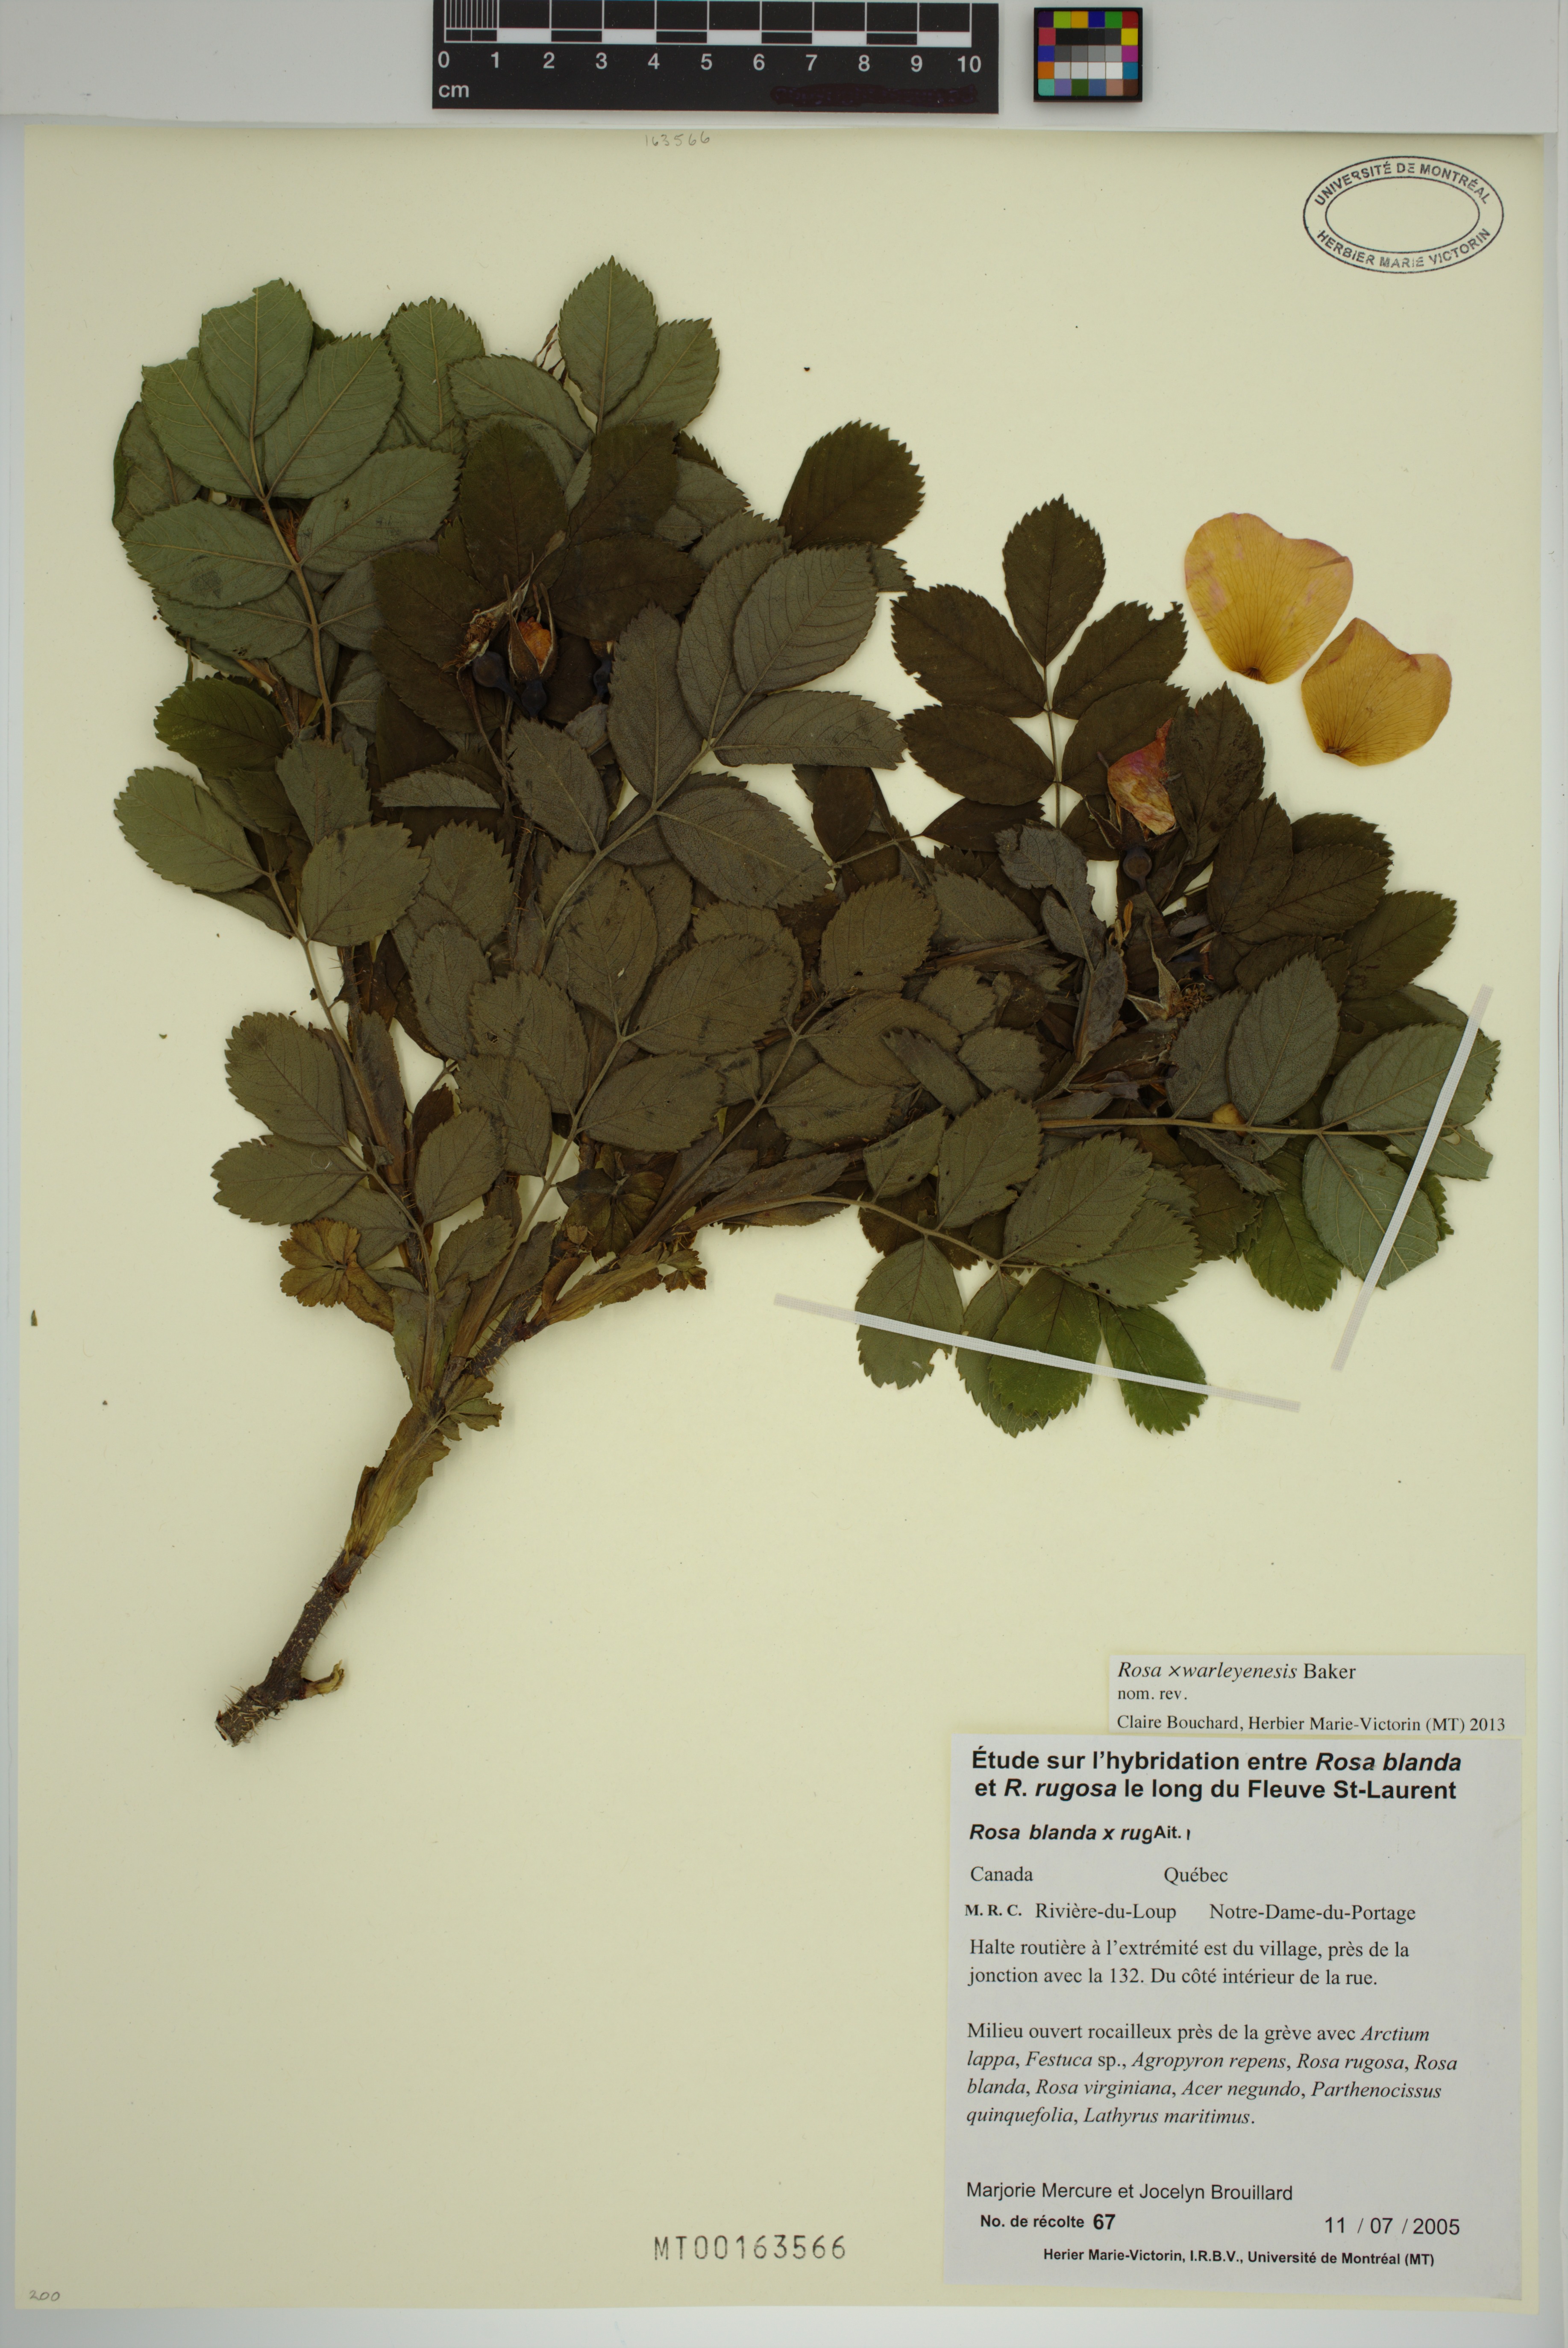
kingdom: Plantae
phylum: Tracheophyta
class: Magnoliopsida
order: Rosales
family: Rosaceae
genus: Rosa
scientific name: Rosa warleyensis
